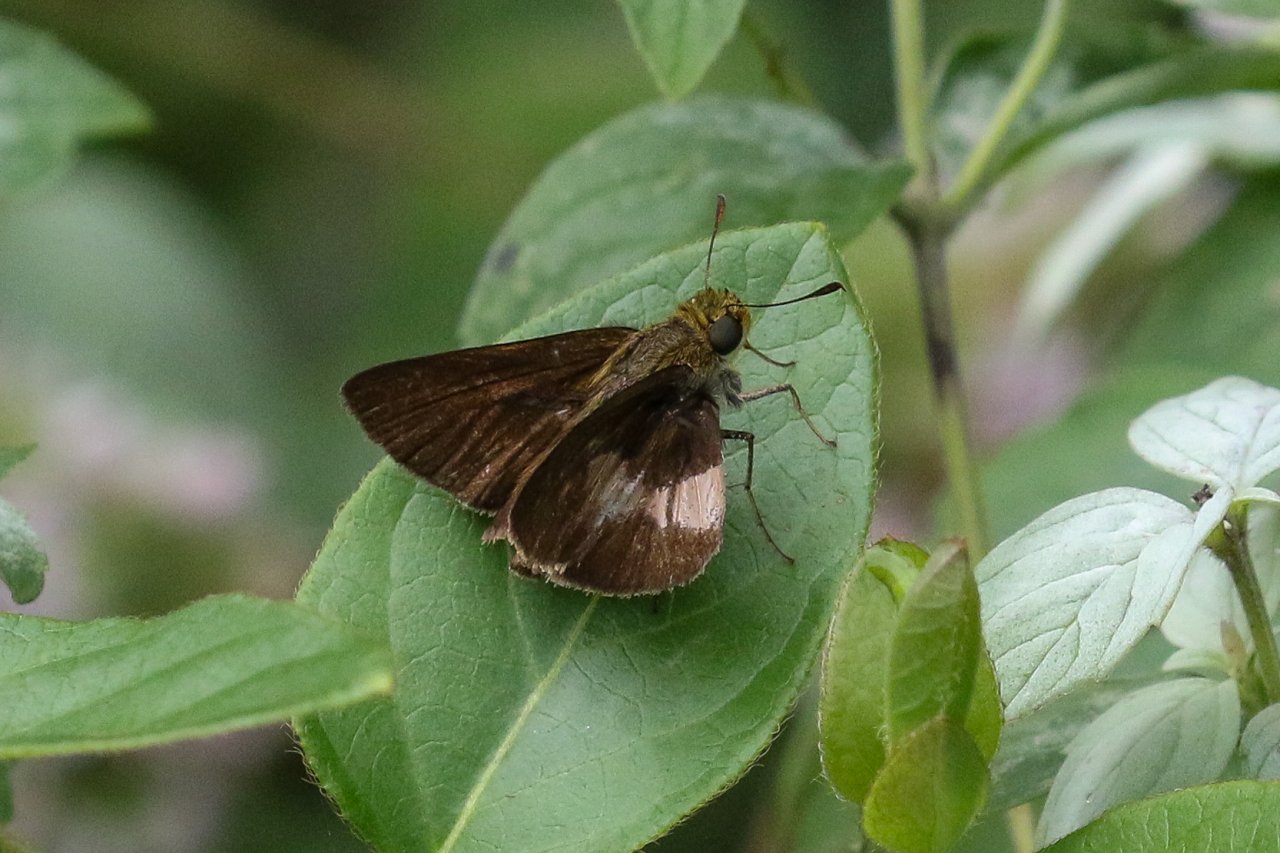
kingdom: Animalia
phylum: Arthropoda
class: Insecta
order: Lepidoptera
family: Hesperiidae
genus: Euphyes
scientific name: Euphyes vestris
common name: Dun Skipper
